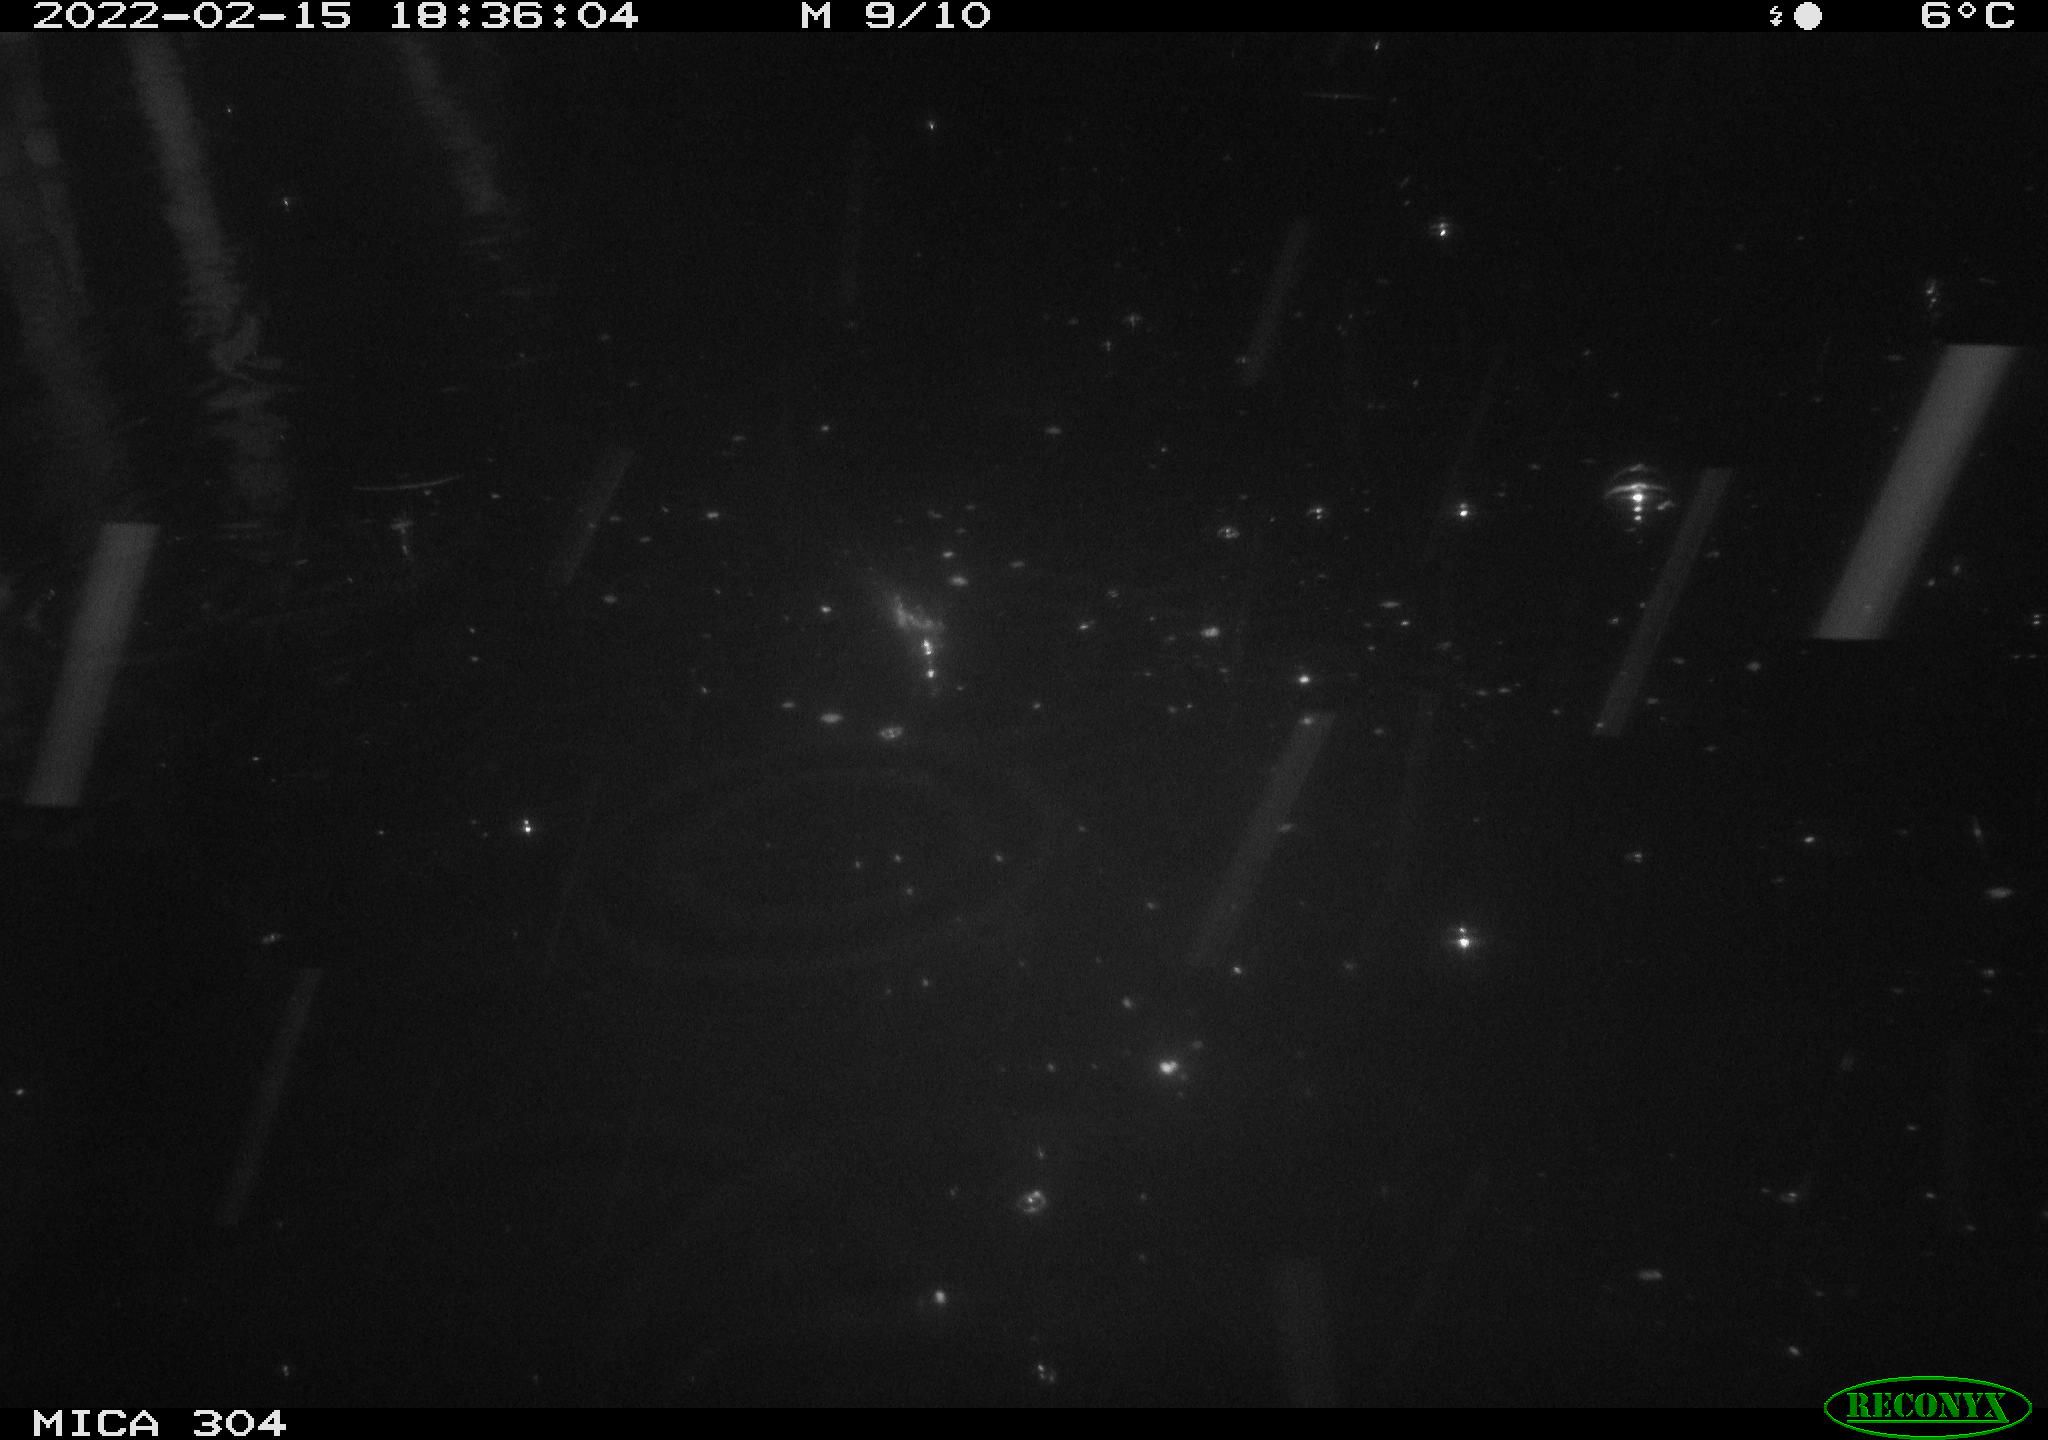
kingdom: Animalia
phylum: Chordata
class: Aves
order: Anseriformes
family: Anatidae
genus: Anas
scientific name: Anas platyrhynchos
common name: Mallard
